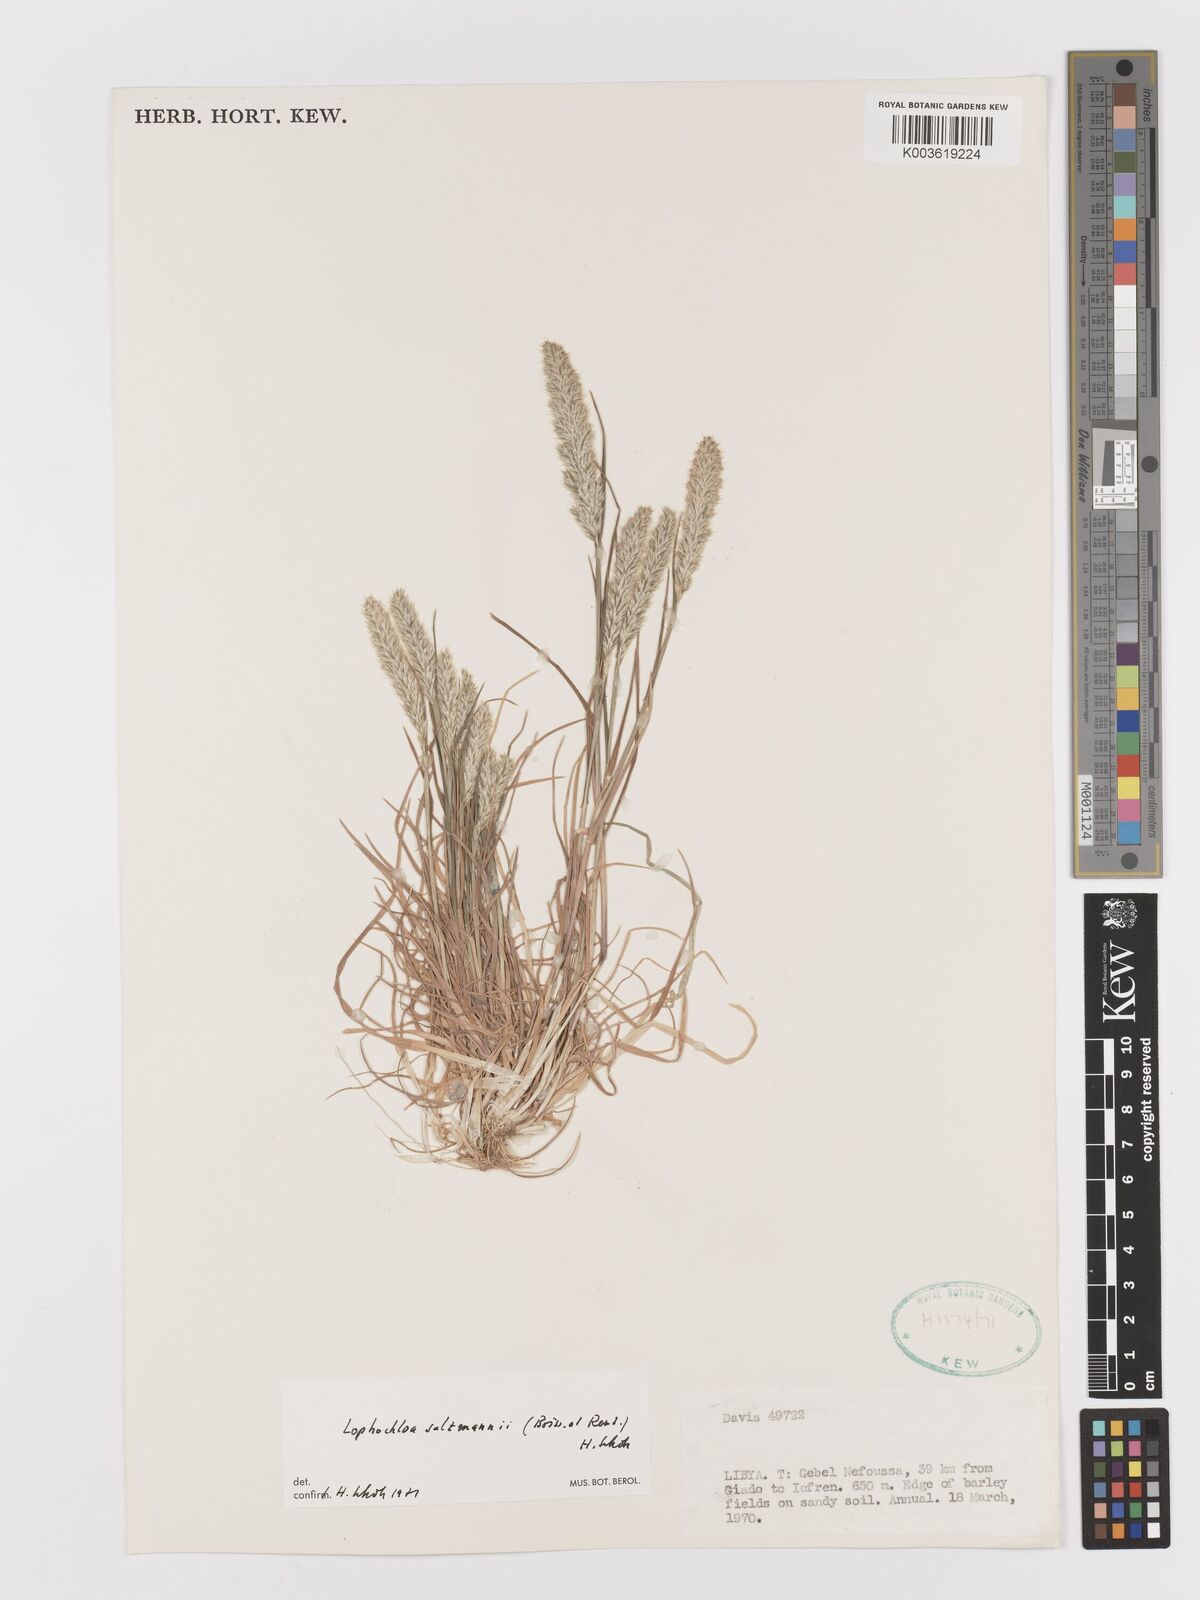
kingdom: Plantae
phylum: Tracheophyta
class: Liliopsida
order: Poales
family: Poaceae
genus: Rostraria
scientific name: Rostraria salzmannii
